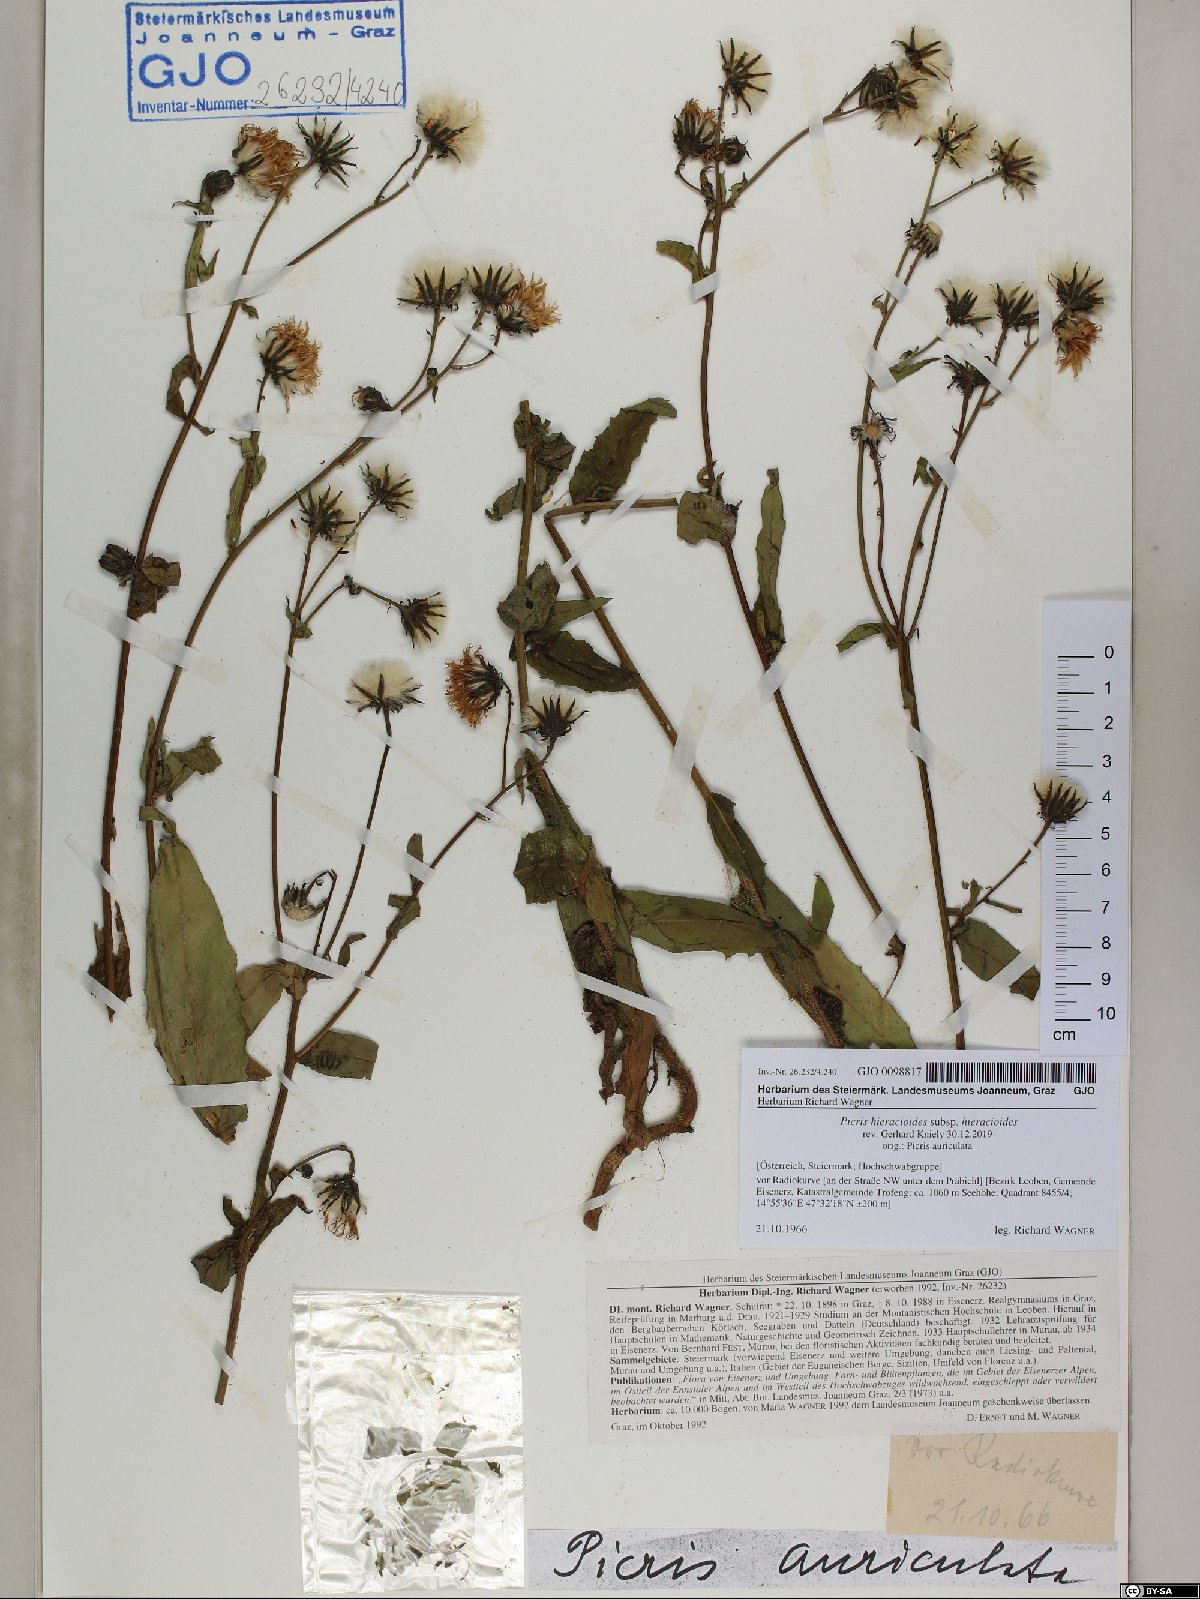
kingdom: Plantae
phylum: Tracheophyta
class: Magnoliopsida
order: Asterales
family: Asteraceae
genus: Picris
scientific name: Picris hieracioides
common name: Hawkweed oxtongue
